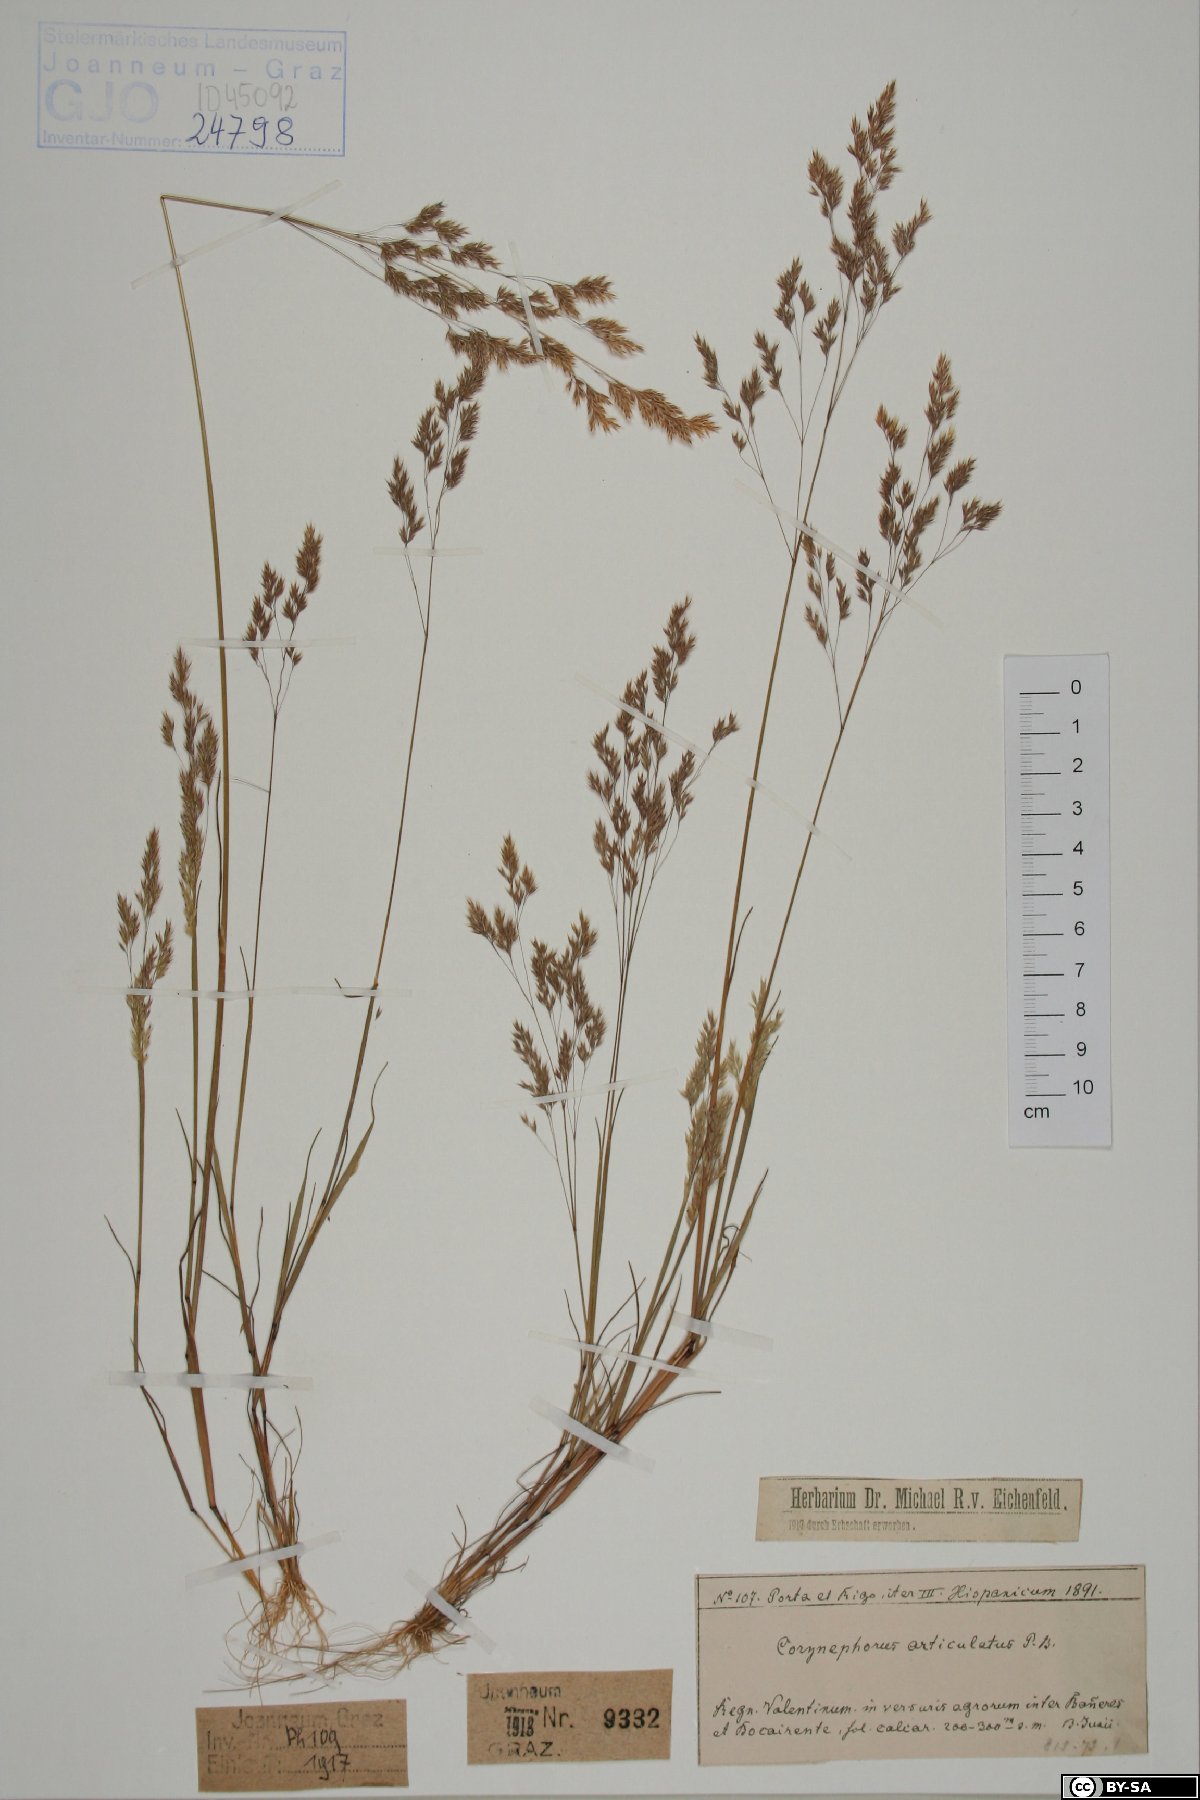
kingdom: Plantae
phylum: Tracheophyta
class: Liliopsida
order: Poales
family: Poaceae
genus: Corynephorus
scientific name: Corynephorus articulatus
